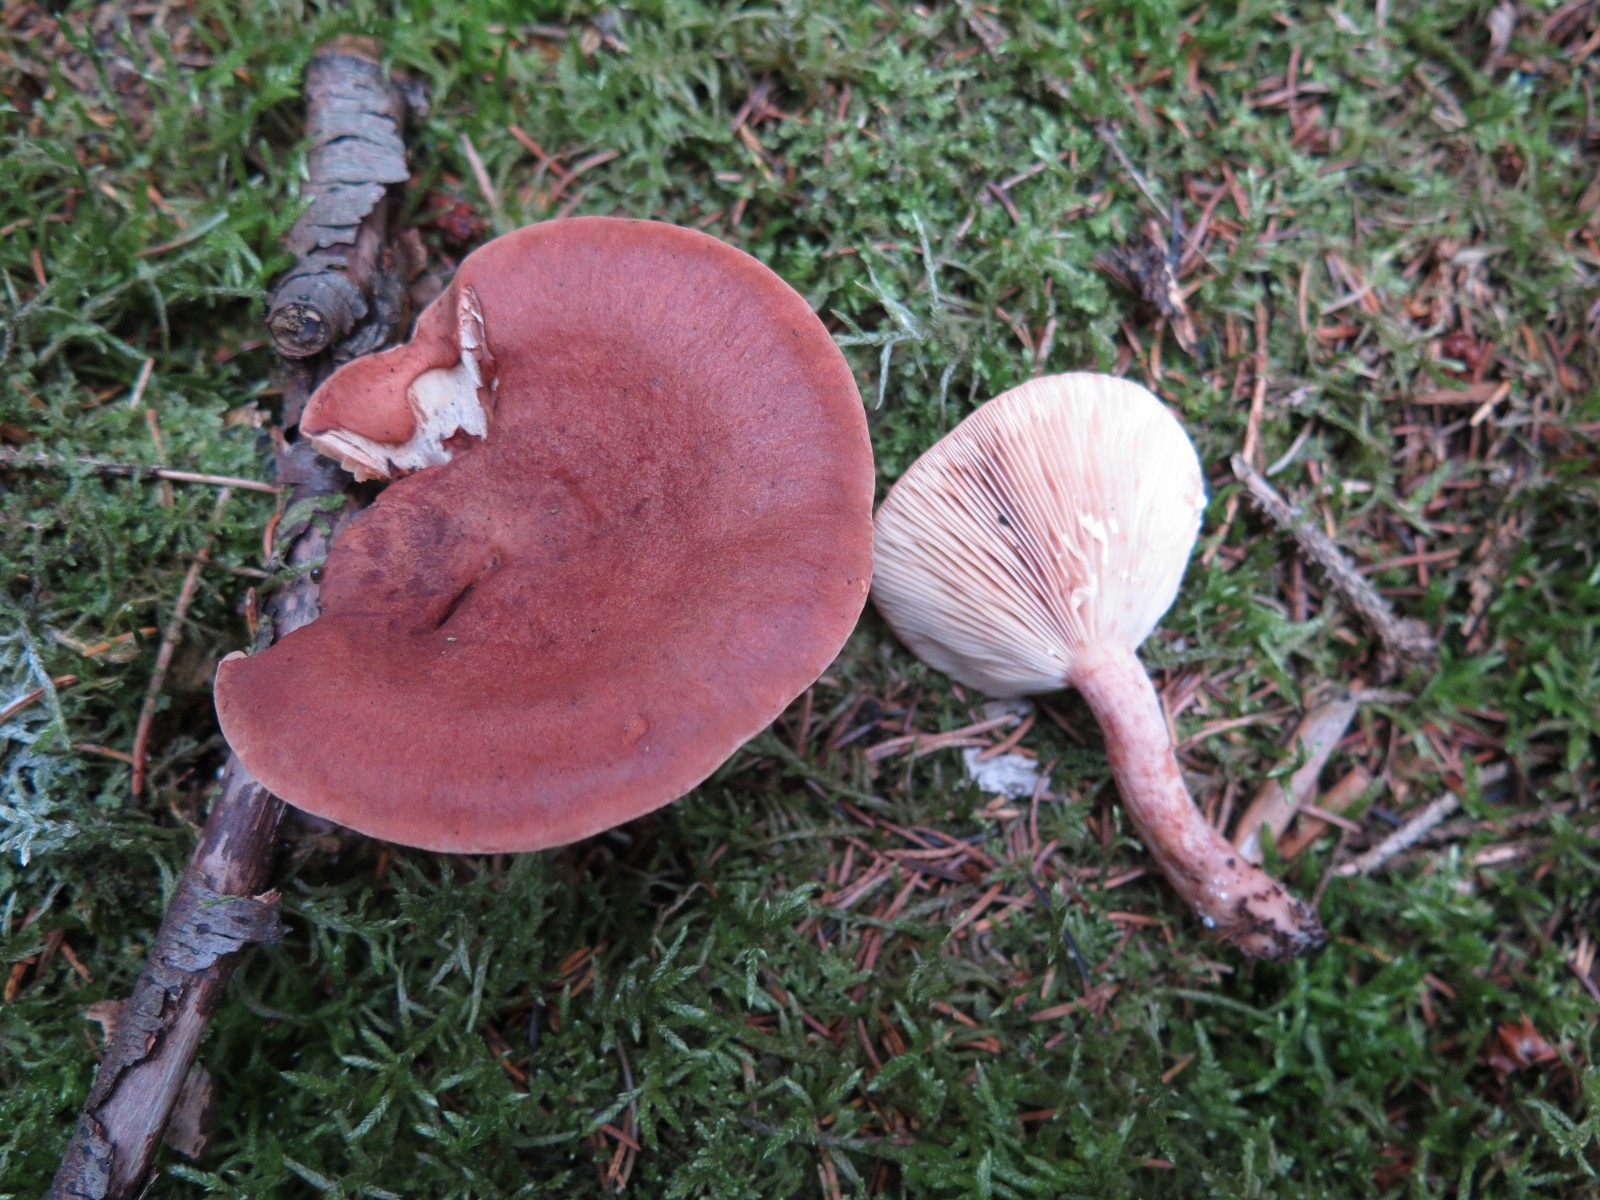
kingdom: Fungi
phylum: Basidiomycota
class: Agaricomycetes
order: Russulales
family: Russulaceae
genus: Lactarius
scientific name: Lactarius rufus
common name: rødbrun mælkehat
